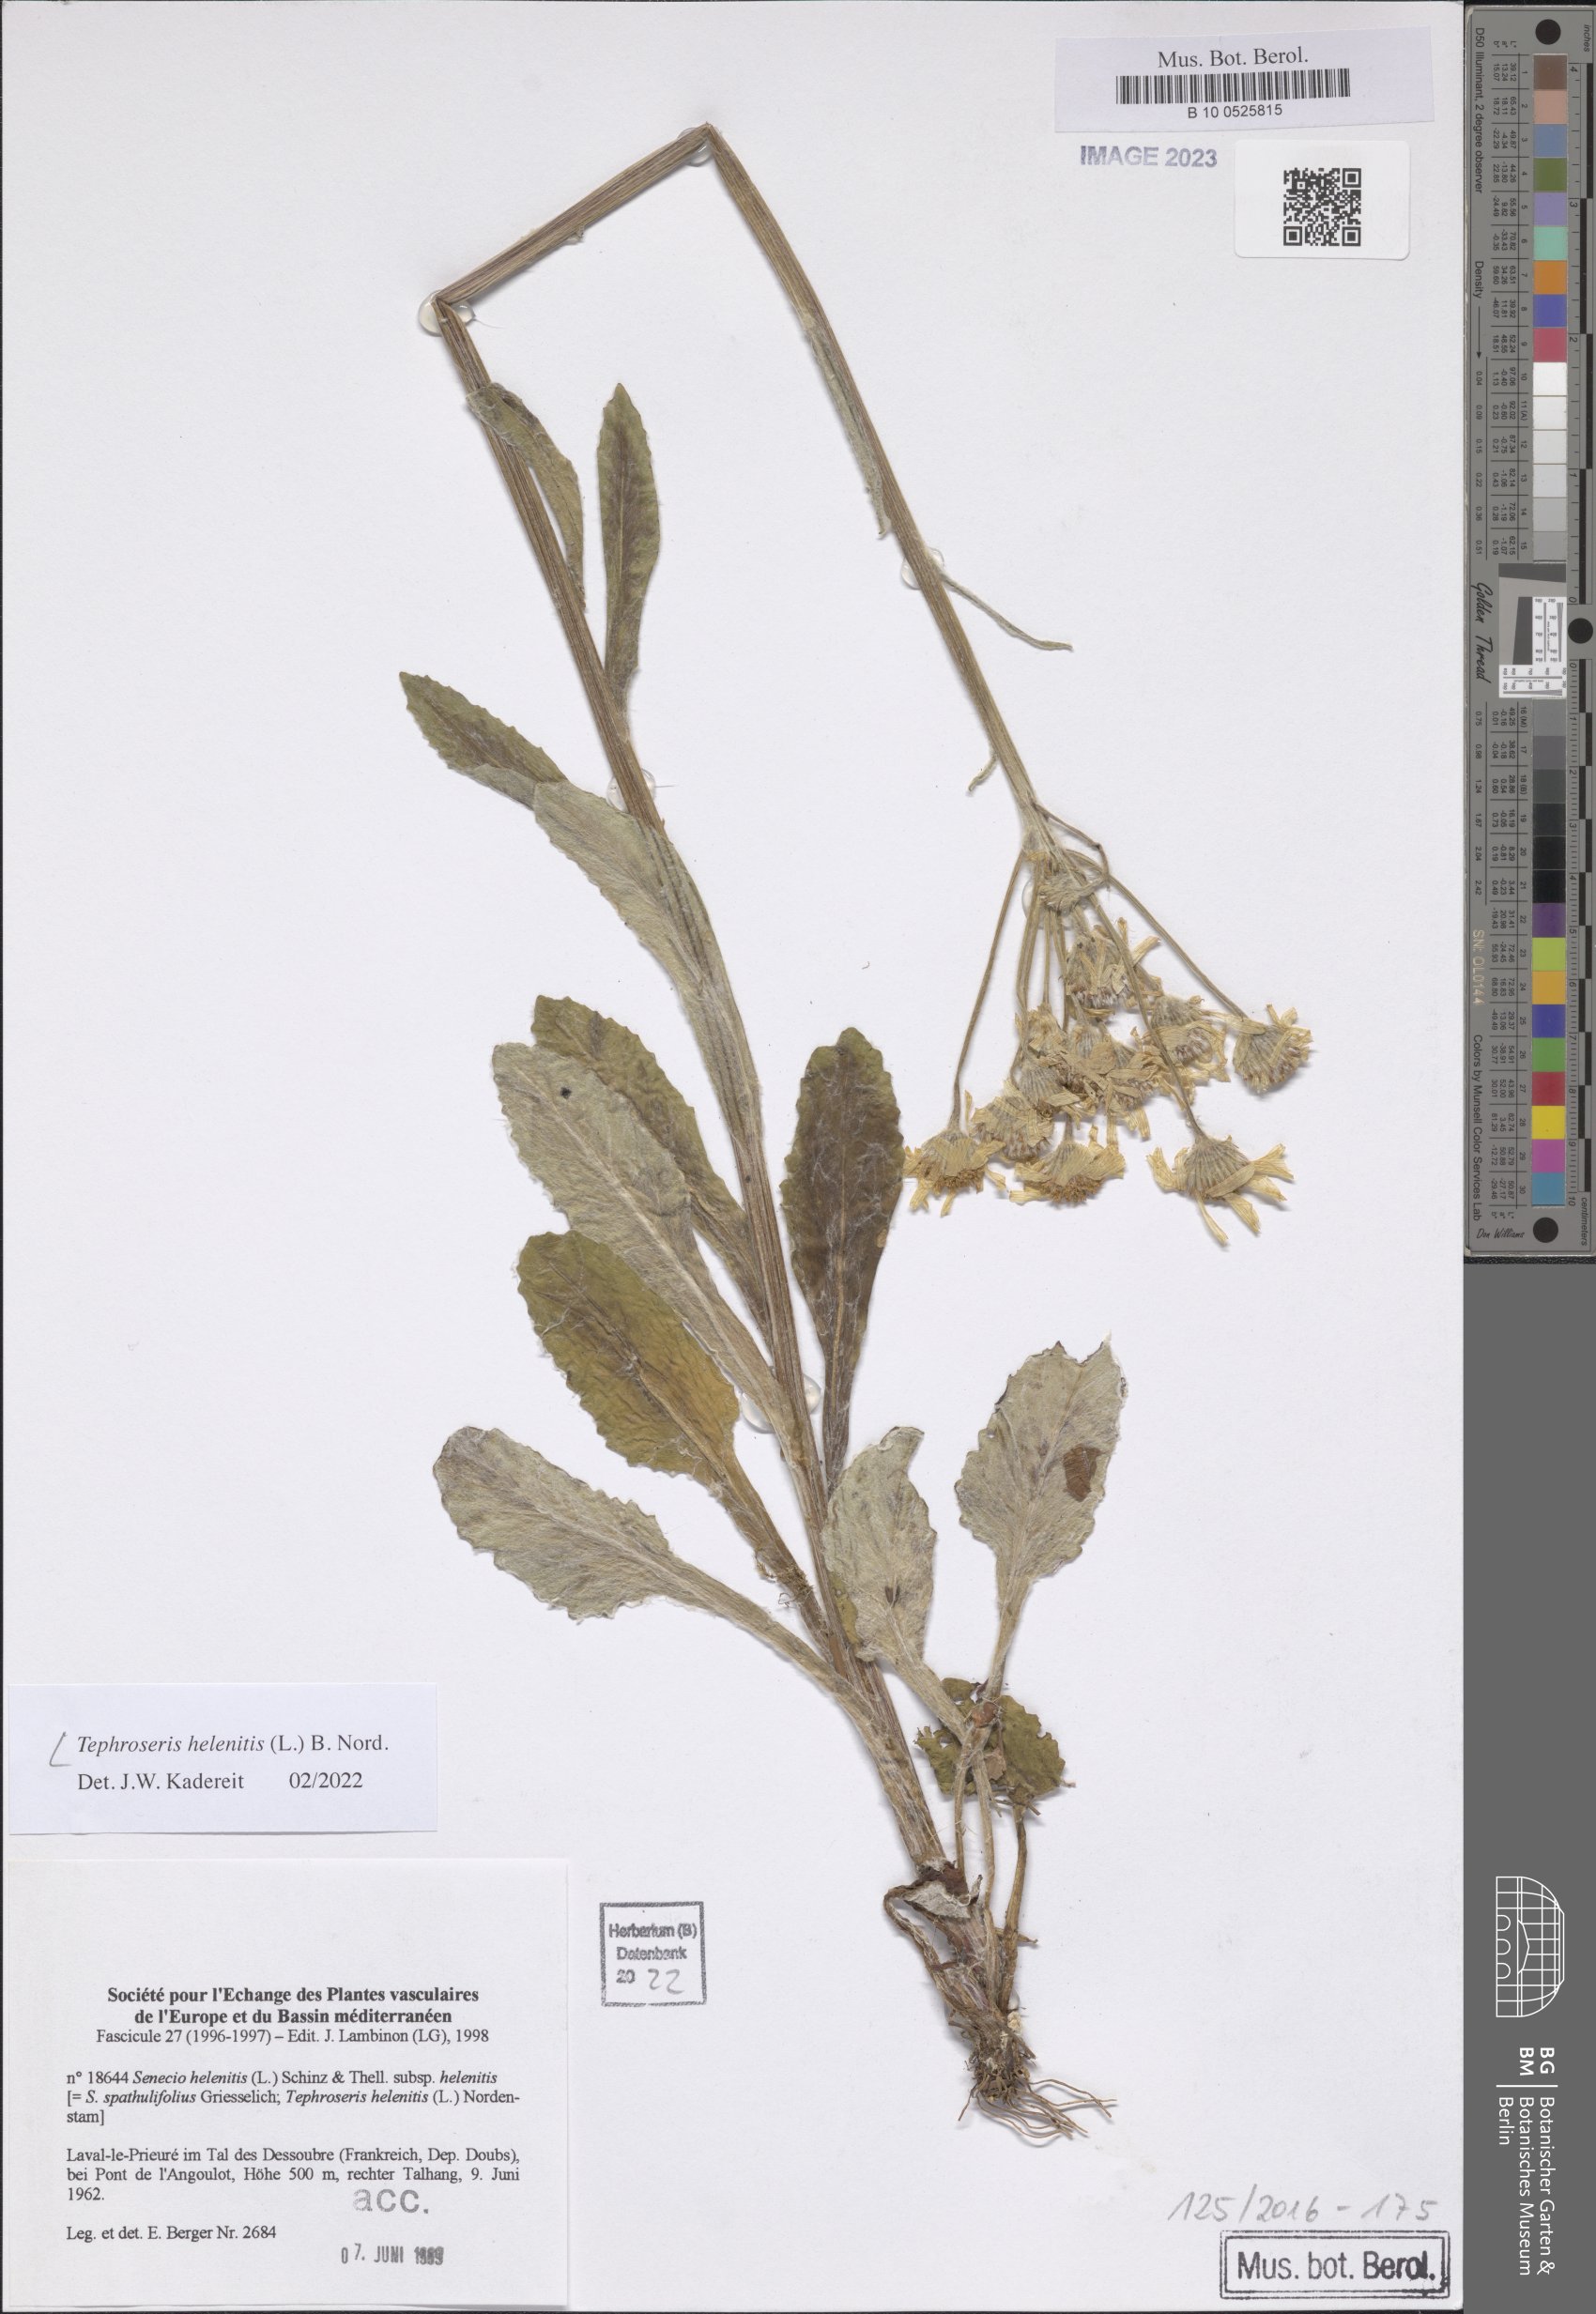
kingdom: Plantae
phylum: Tracheophyta
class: Magnoliopsida
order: Asterales
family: Asteraceae
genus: Tephroseris
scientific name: Tephroseris helenitis
